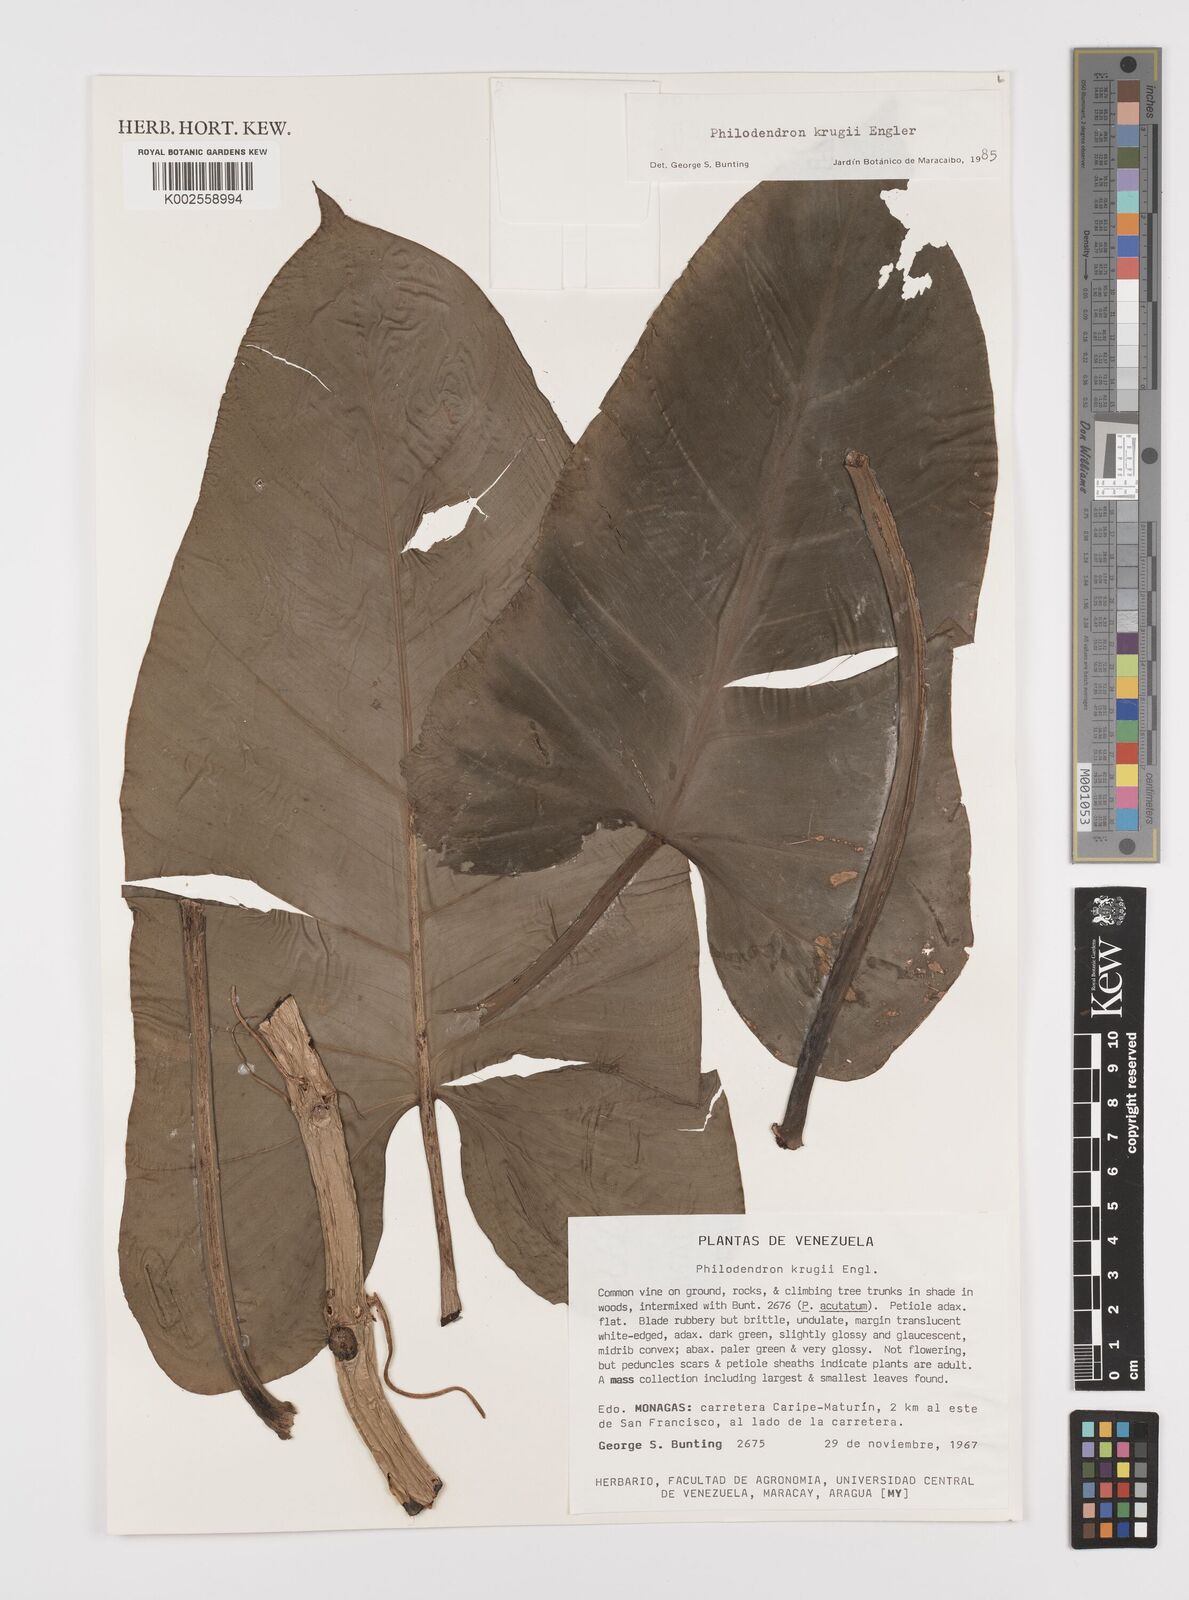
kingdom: Plantae
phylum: Tracheophyta
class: Liliopsida
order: Alismatales
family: Araceae
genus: Philodendron
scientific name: Philodendron krugii
